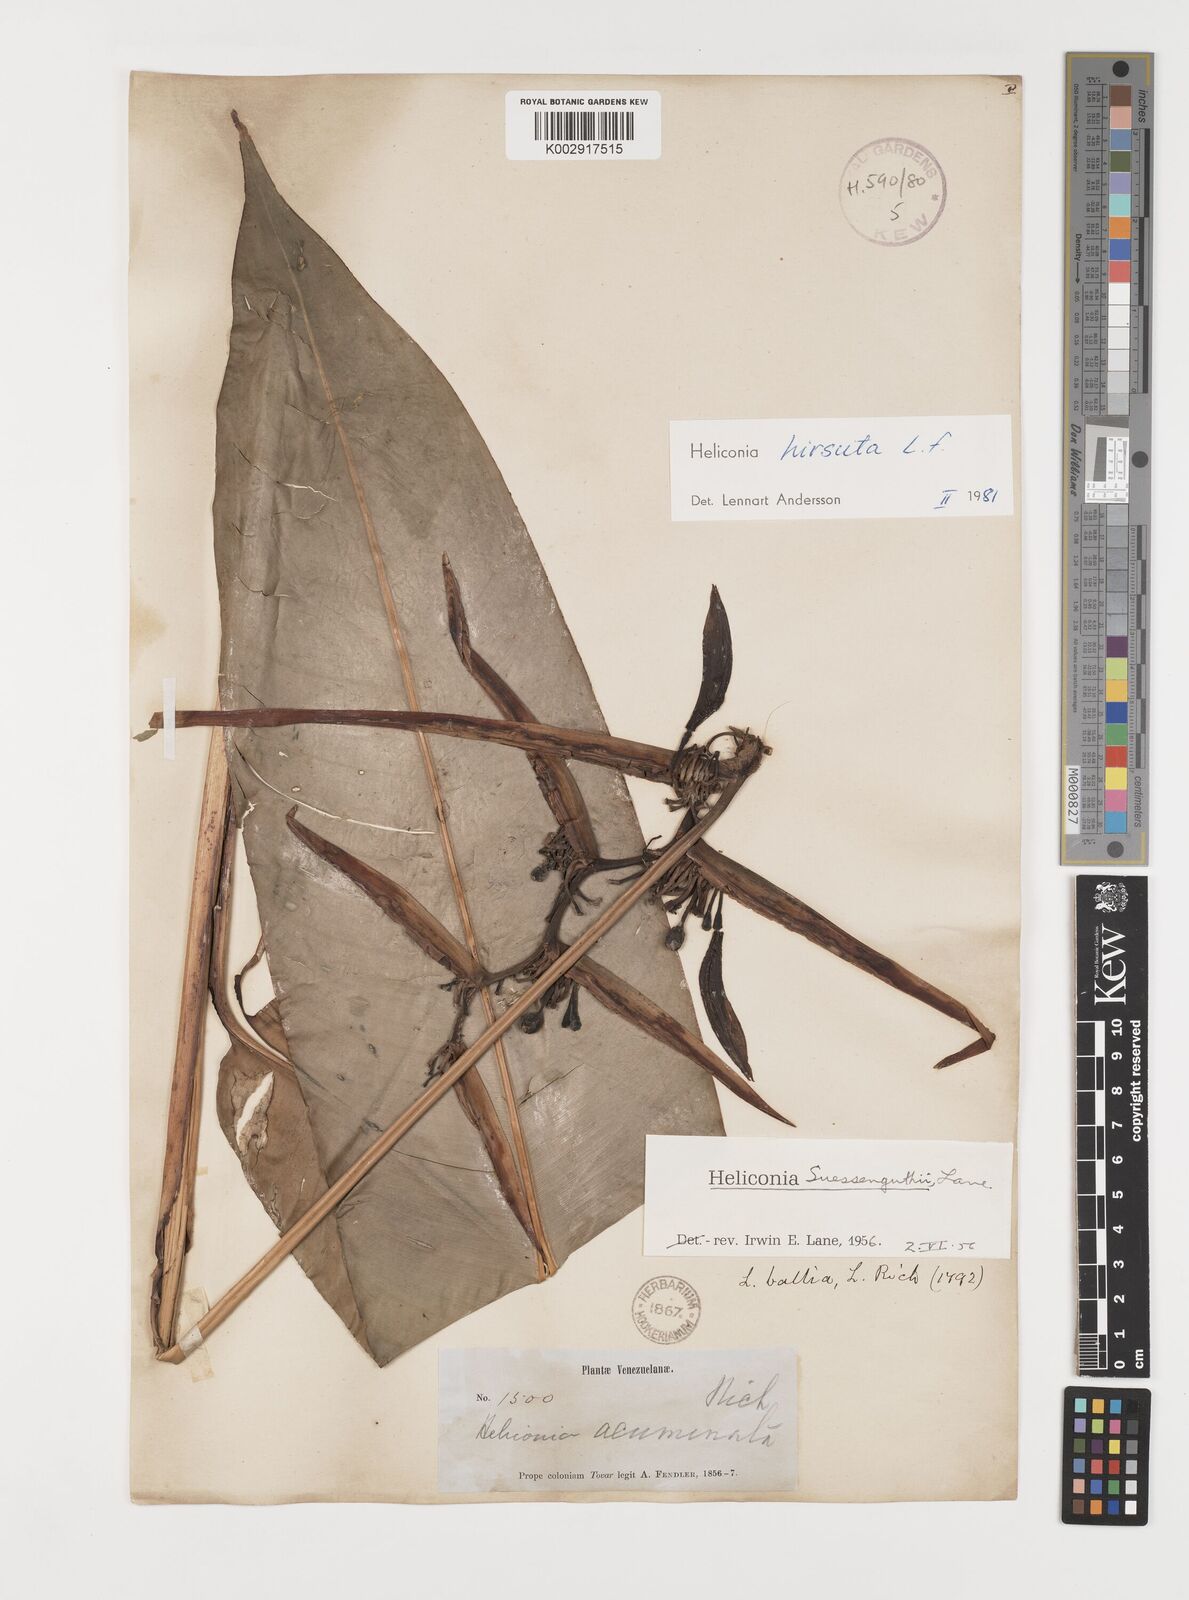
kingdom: Plantae
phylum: Tracheophyta
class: Liliopsida
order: Zingiberales
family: Heliconiaceae
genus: Heliconia
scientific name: Heliconia hirsuta
